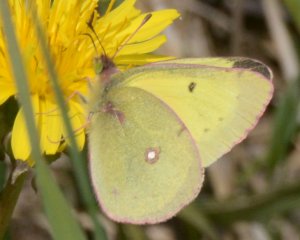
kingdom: Animalia
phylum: Arthropoda
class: Insecta
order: Lepidoptera
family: Pieridae
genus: Colias
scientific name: Colias philodice
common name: Clouded Sulphur
